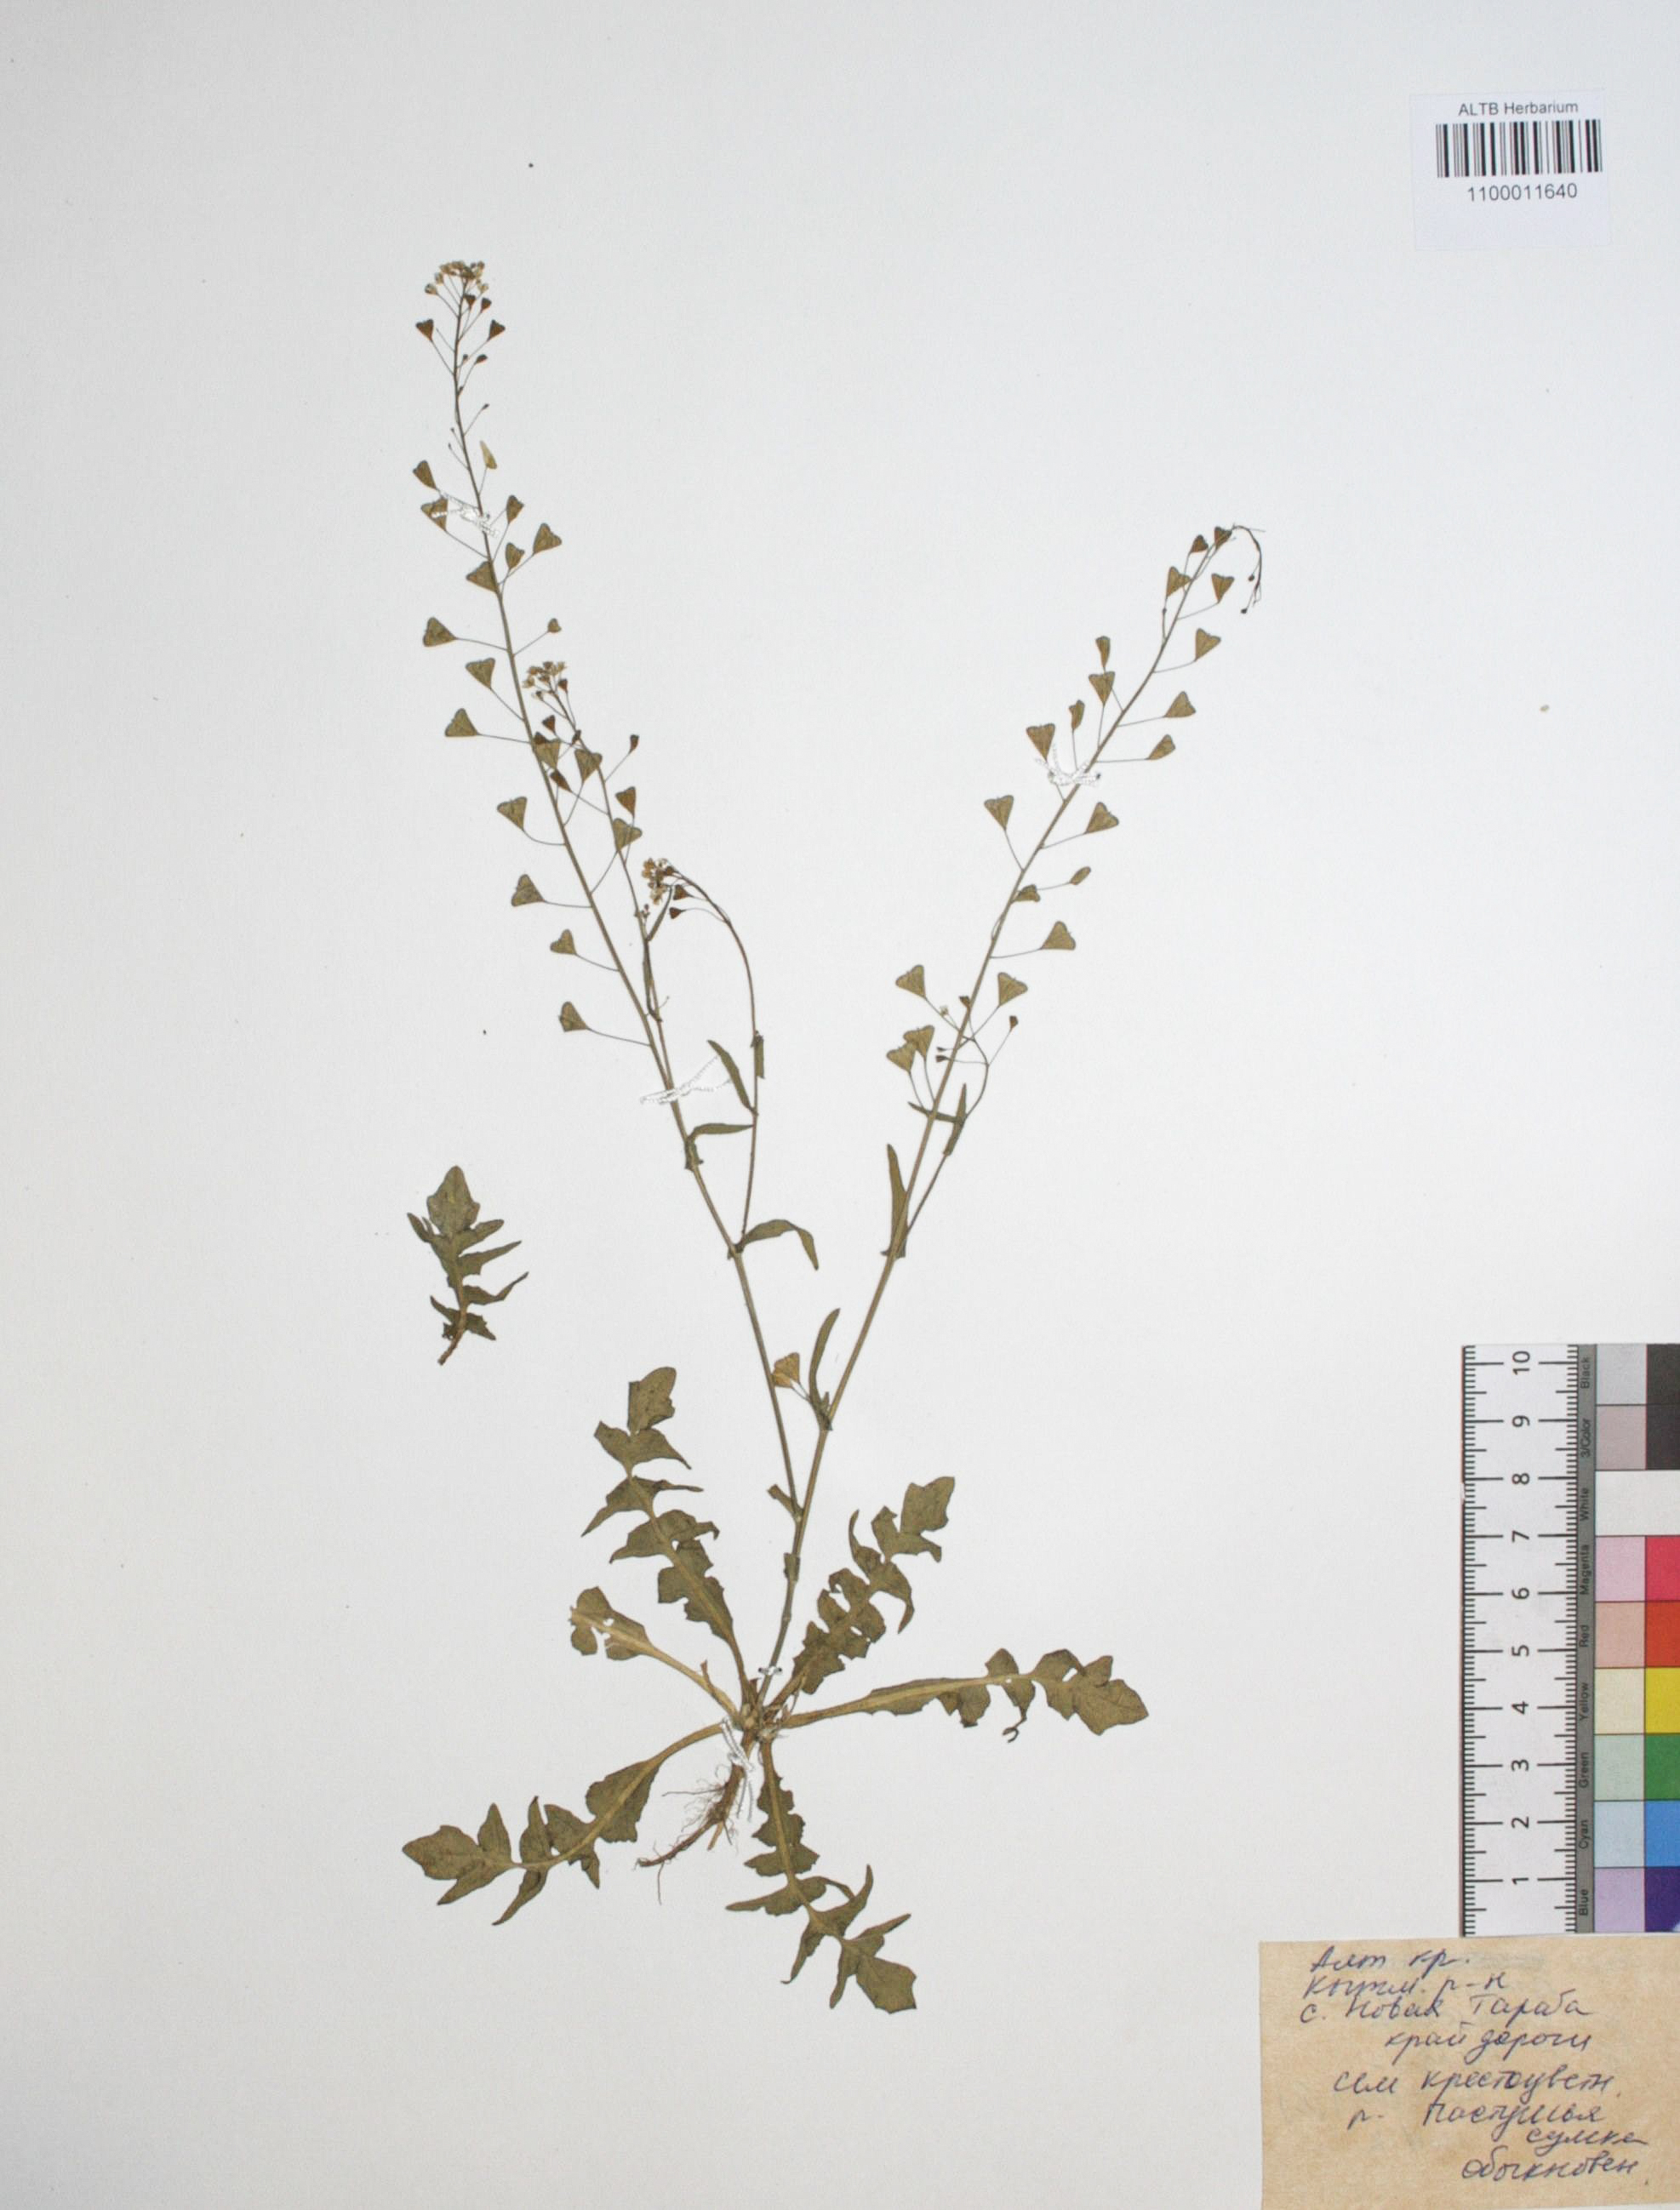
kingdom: Plantae
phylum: Tracheophyta
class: Magnoliopsida
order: Brassicales
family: Brassicaceae
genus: Capsella
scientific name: Capsella bursa-pastoris
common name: Shepherd's purse
